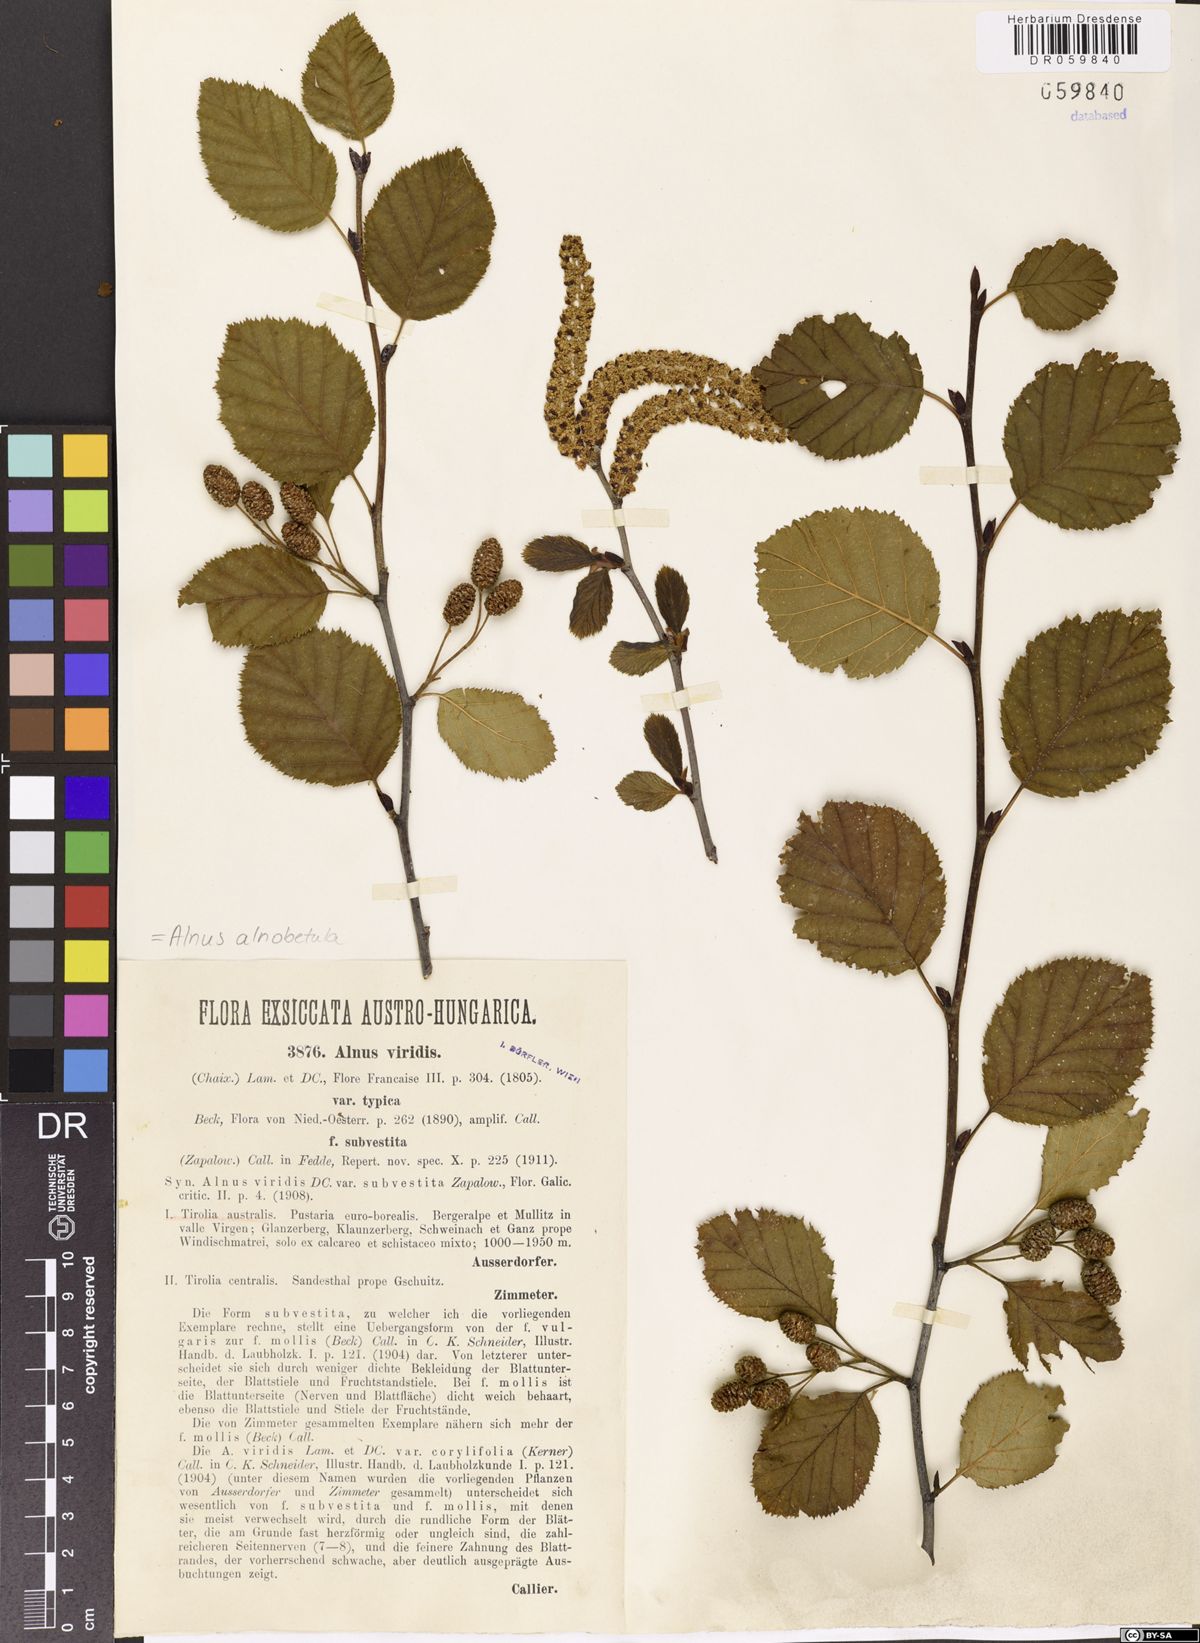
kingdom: Plantae
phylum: Tracheophyta
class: Magnoliopsida
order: Fagales
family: Betulaceae
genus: Alnus
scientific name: Alnus alnobetula
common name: Green alder
